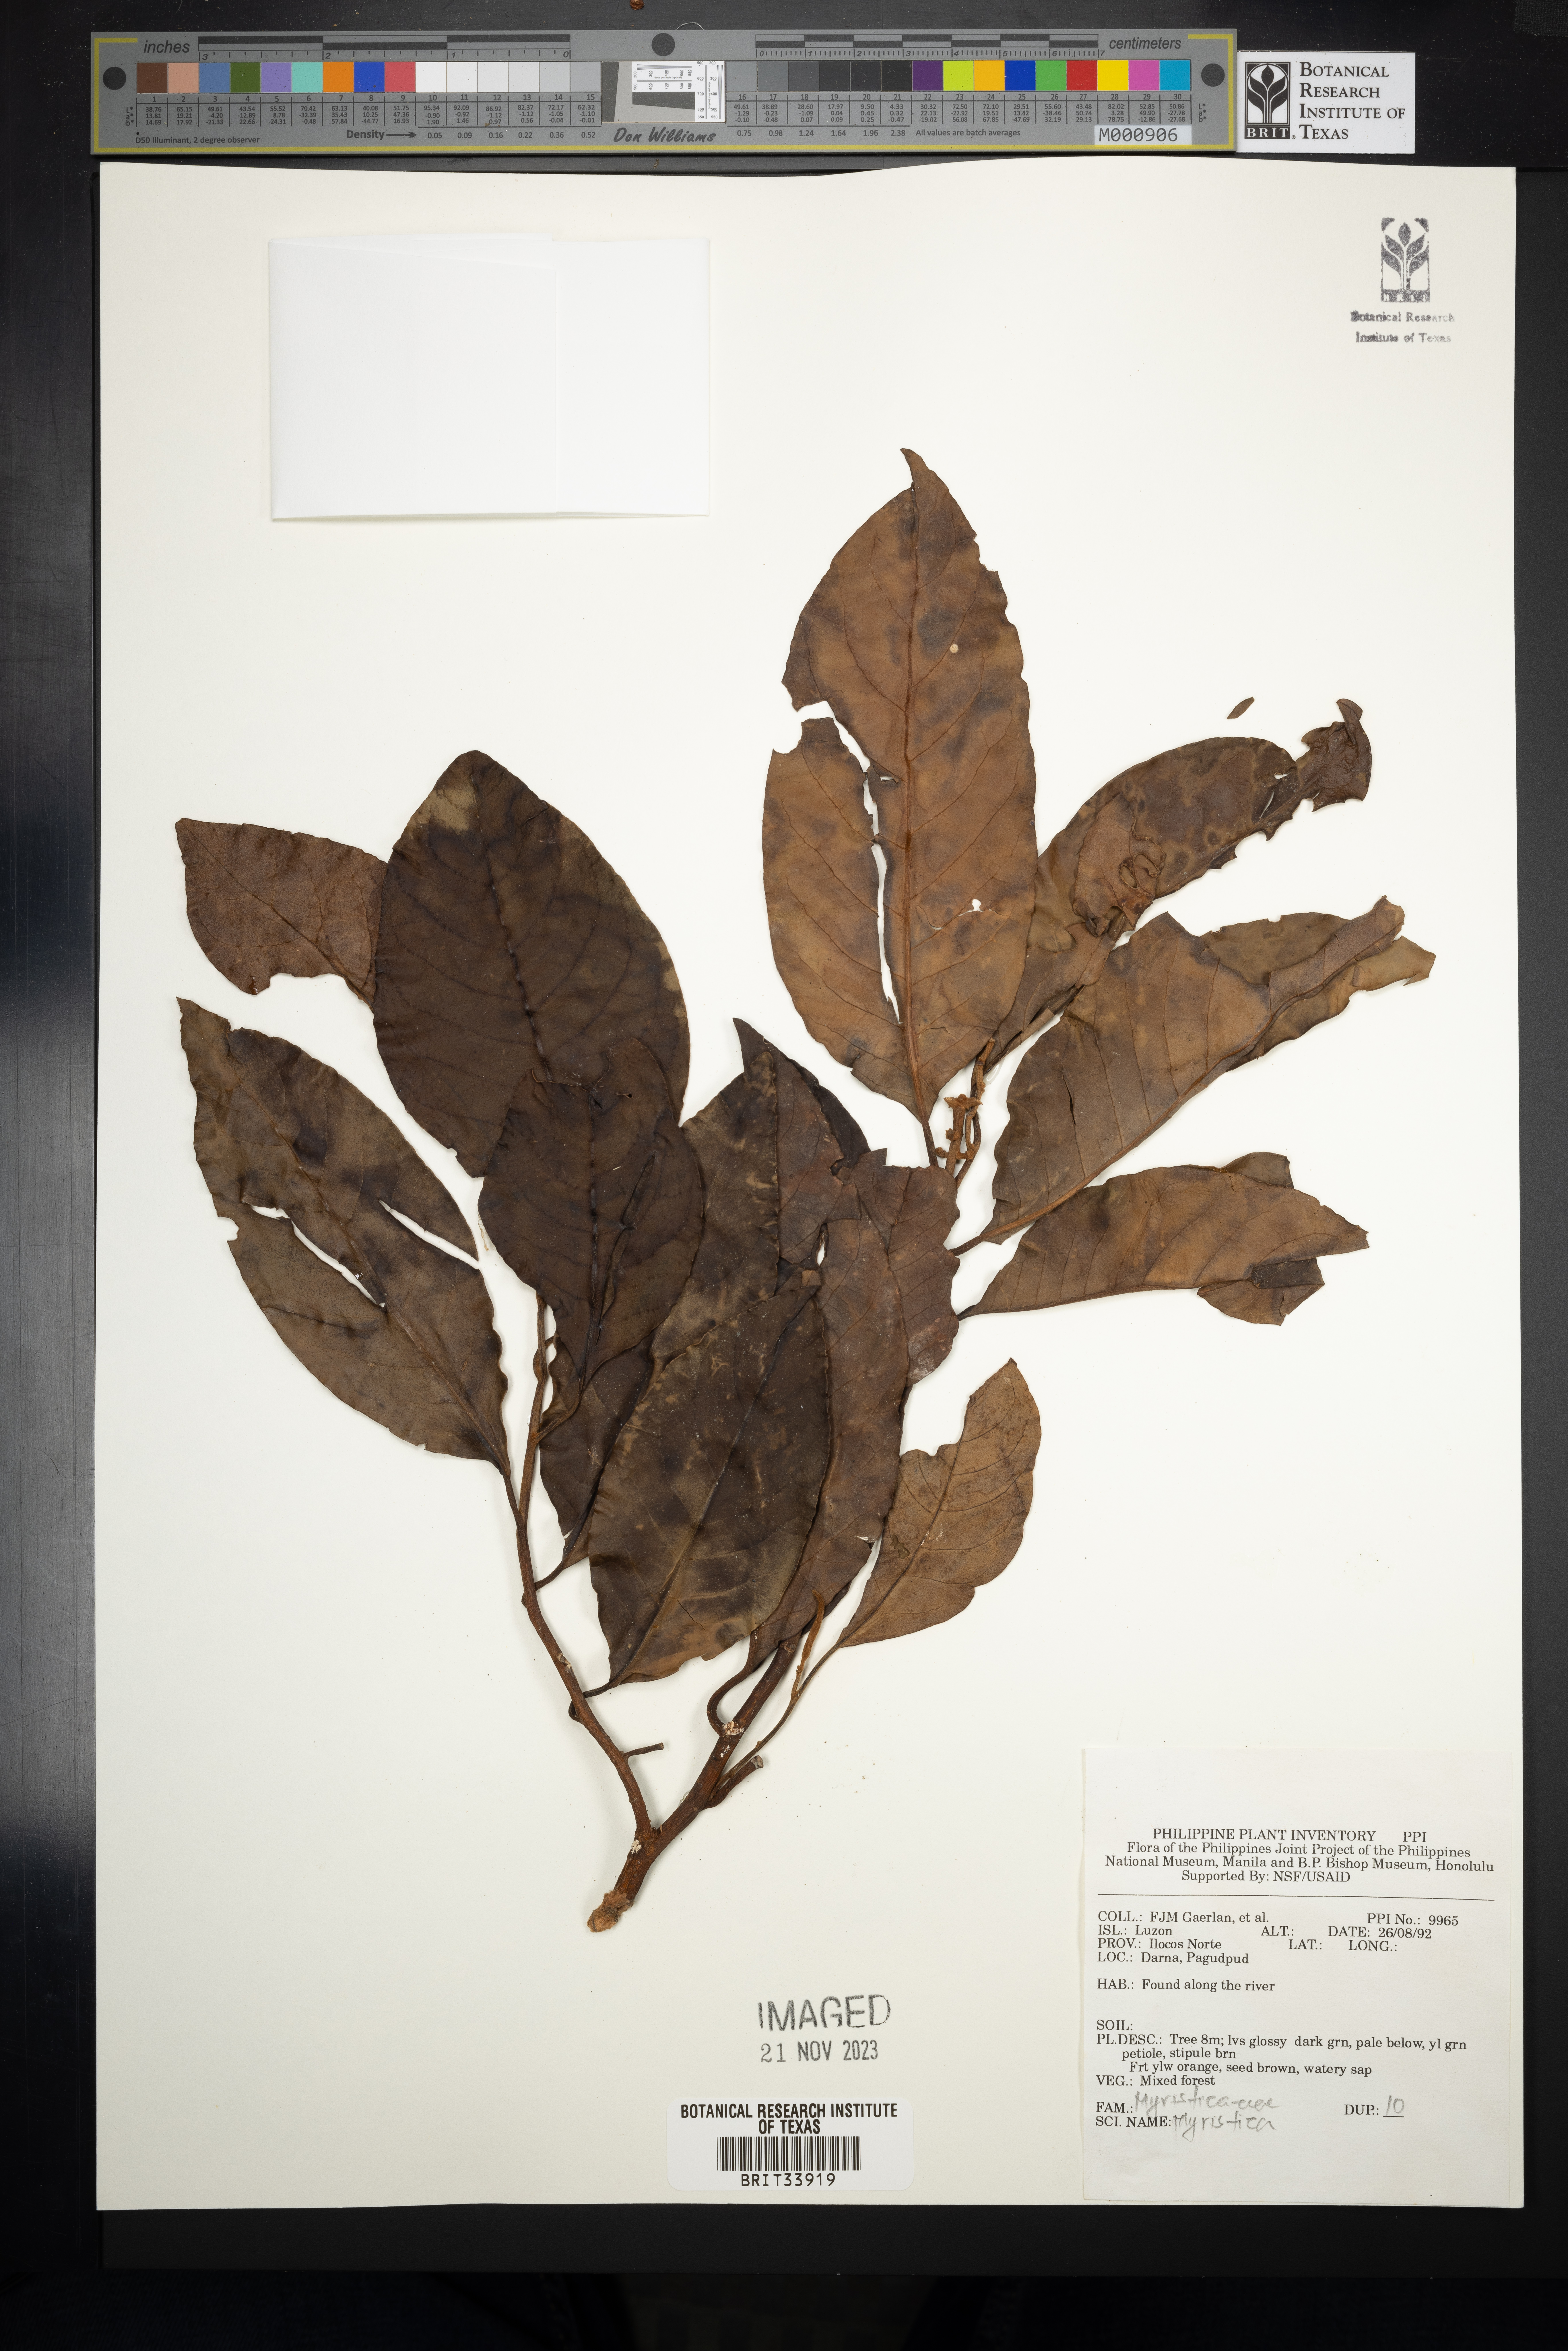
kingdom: Plantae
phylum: Tracheophyta
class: Magnoliopsida
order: Magnoliales
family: Myristicaceae
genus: Myristica
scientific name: Myristica
